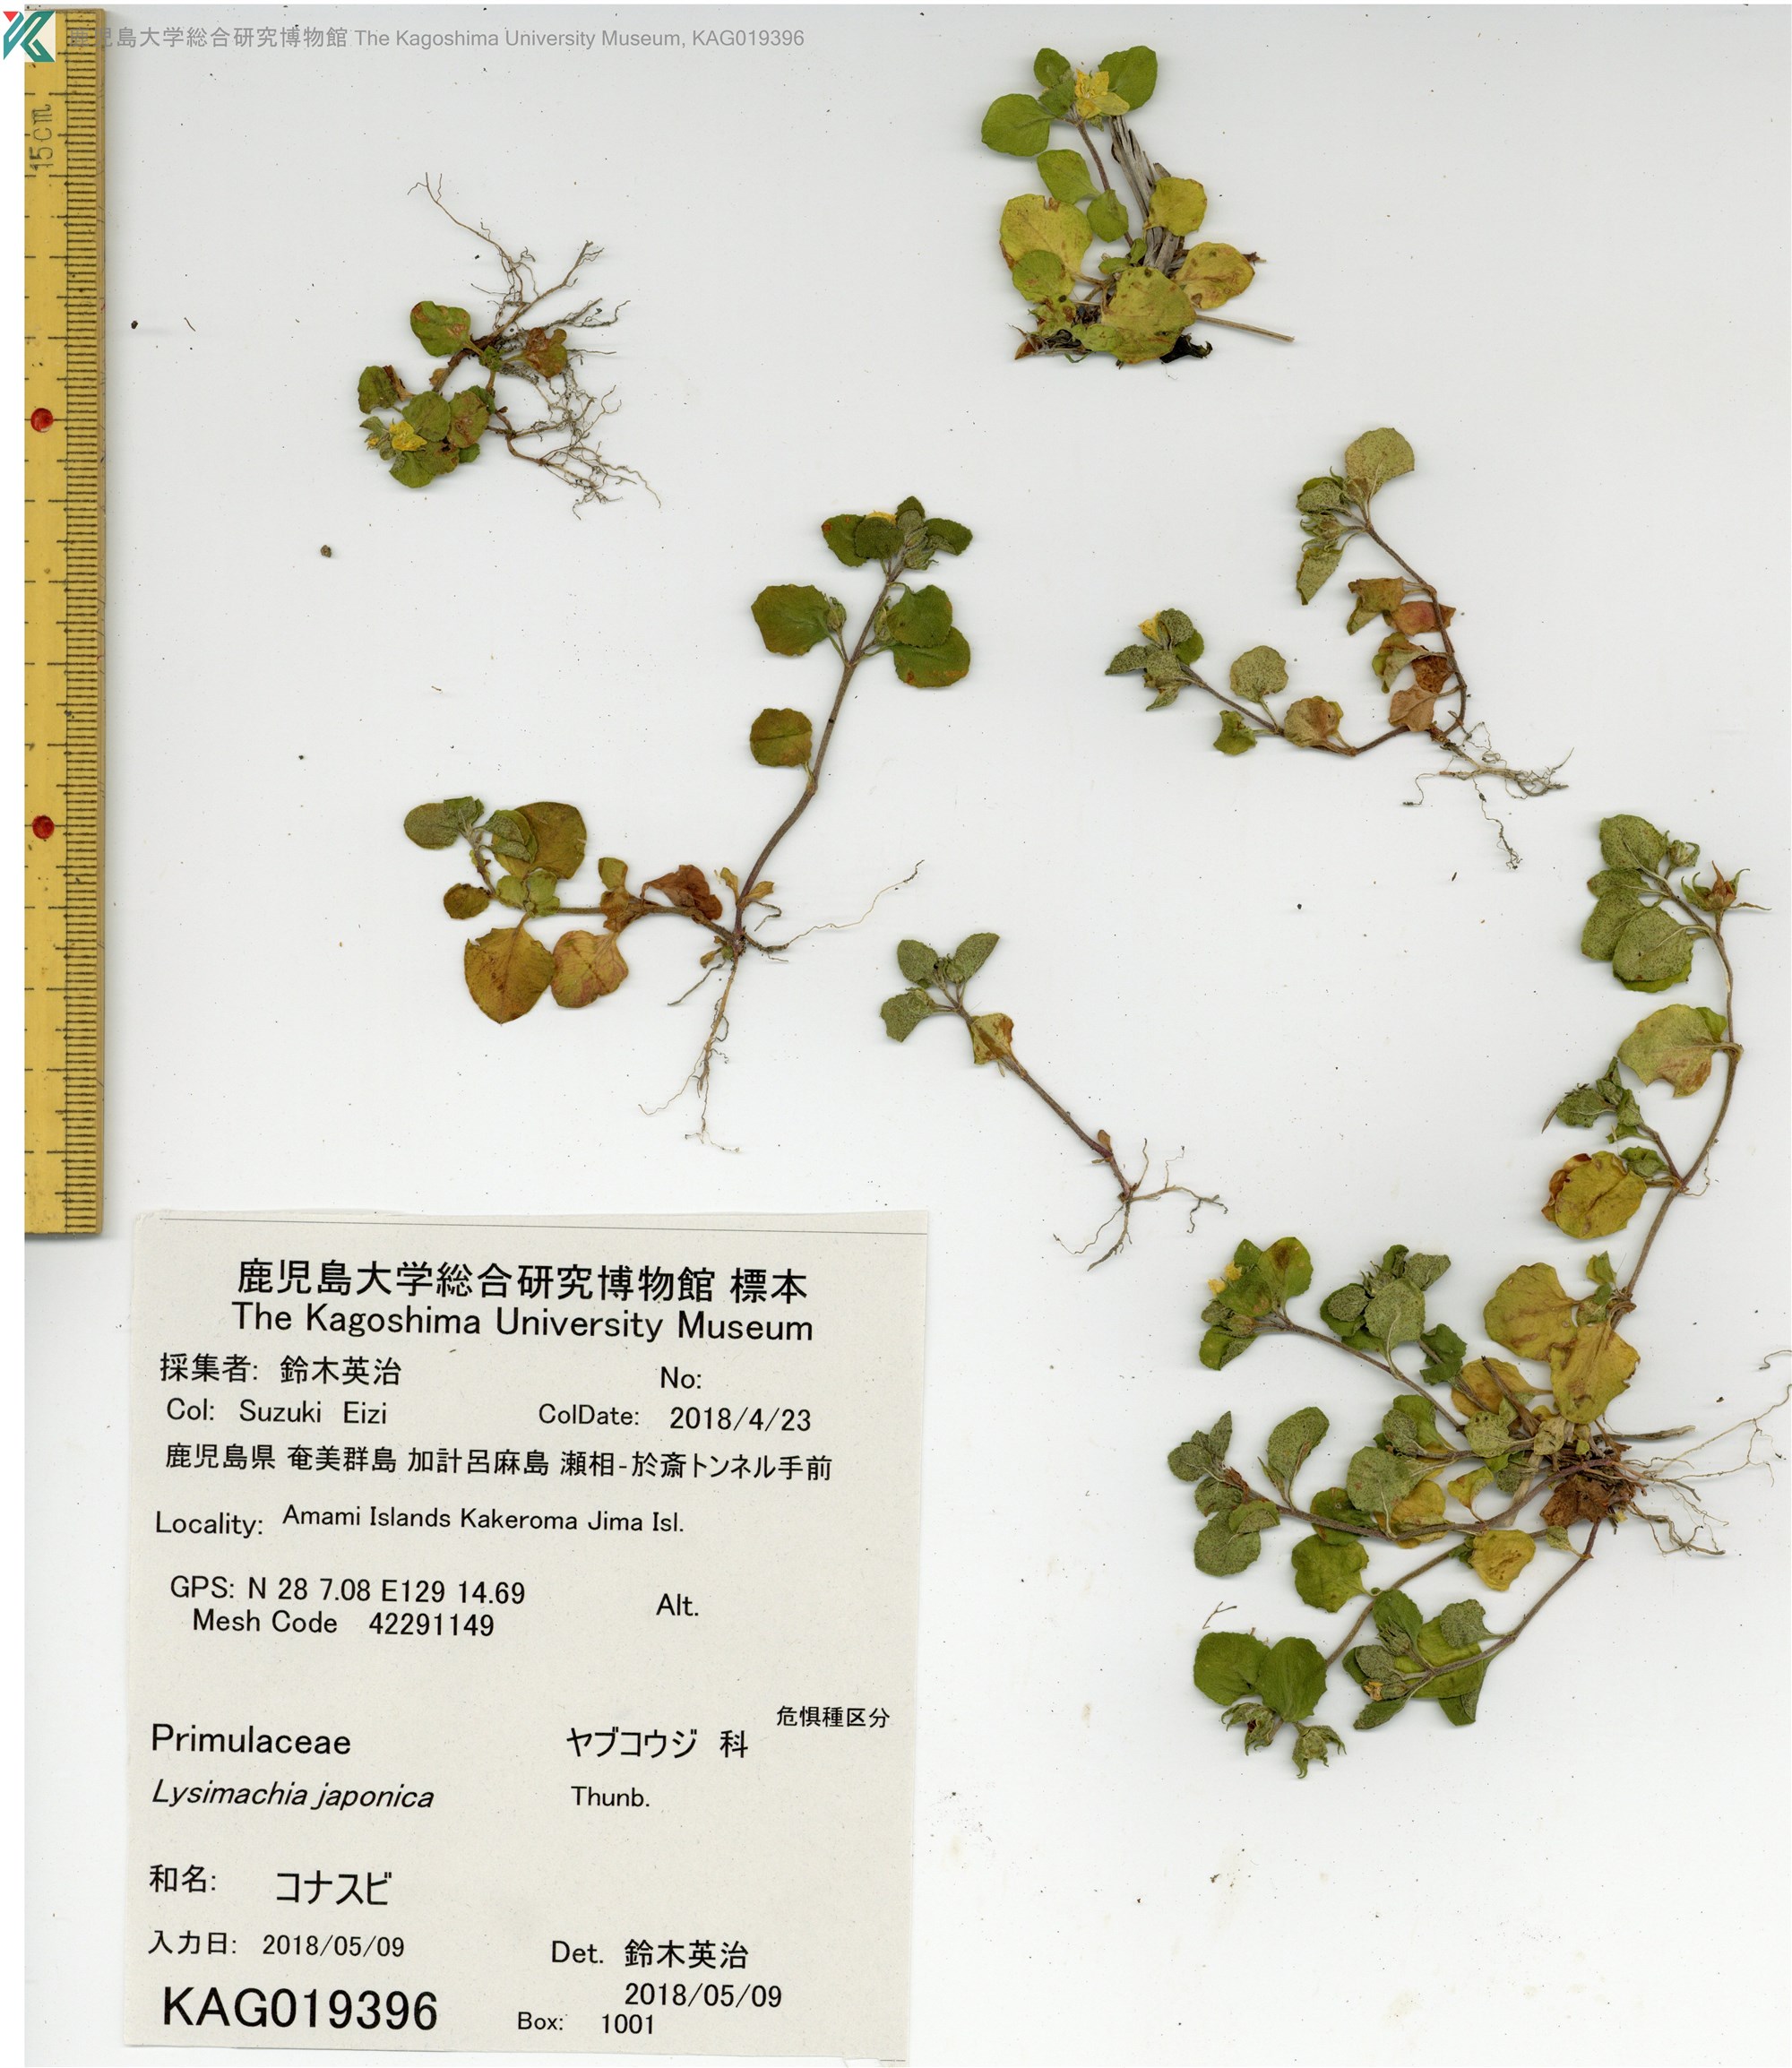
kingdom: Plantae
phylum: Tracheophyta
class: Magnoliopsida
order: Ericales
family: Primulaceae
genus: Lysimachia
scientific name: Lysimachia japonica
